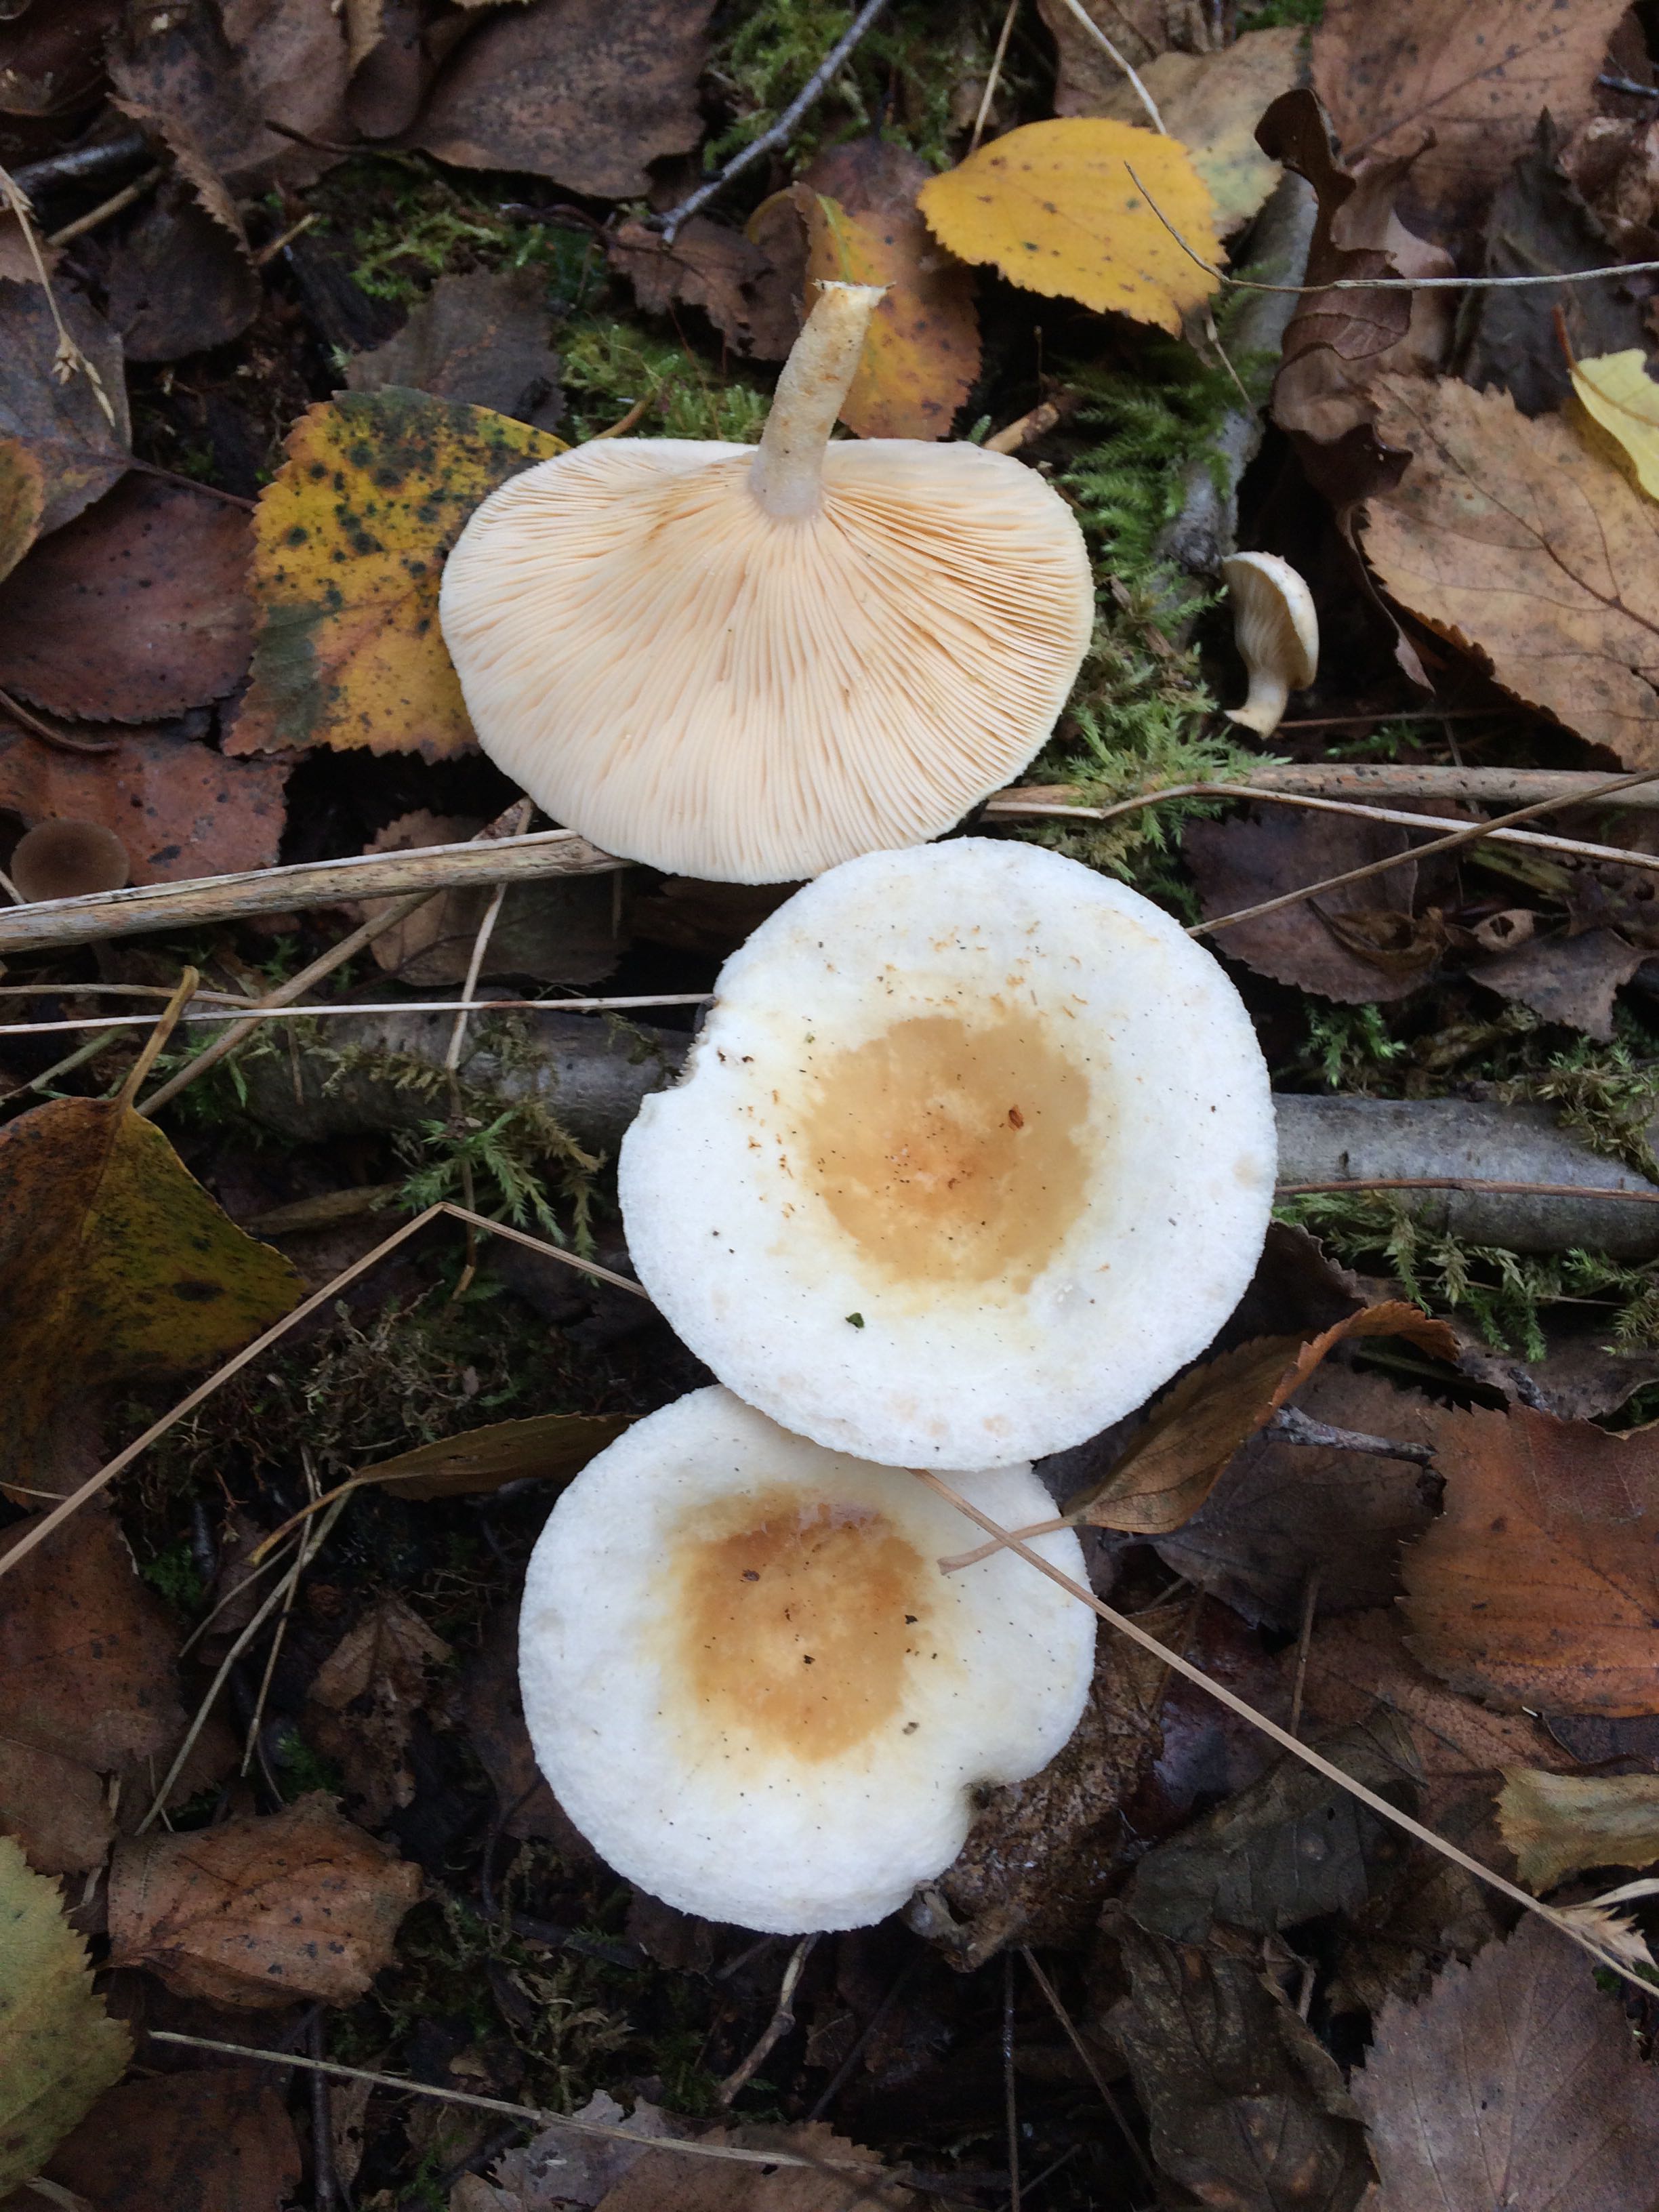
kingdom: Fungi
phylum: Basidiomycota
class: Agaricomycetes
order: Russulales
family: Russulaceae
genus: Lactarius
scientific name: Lactarius scoticus
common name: tørve-mælkehat
